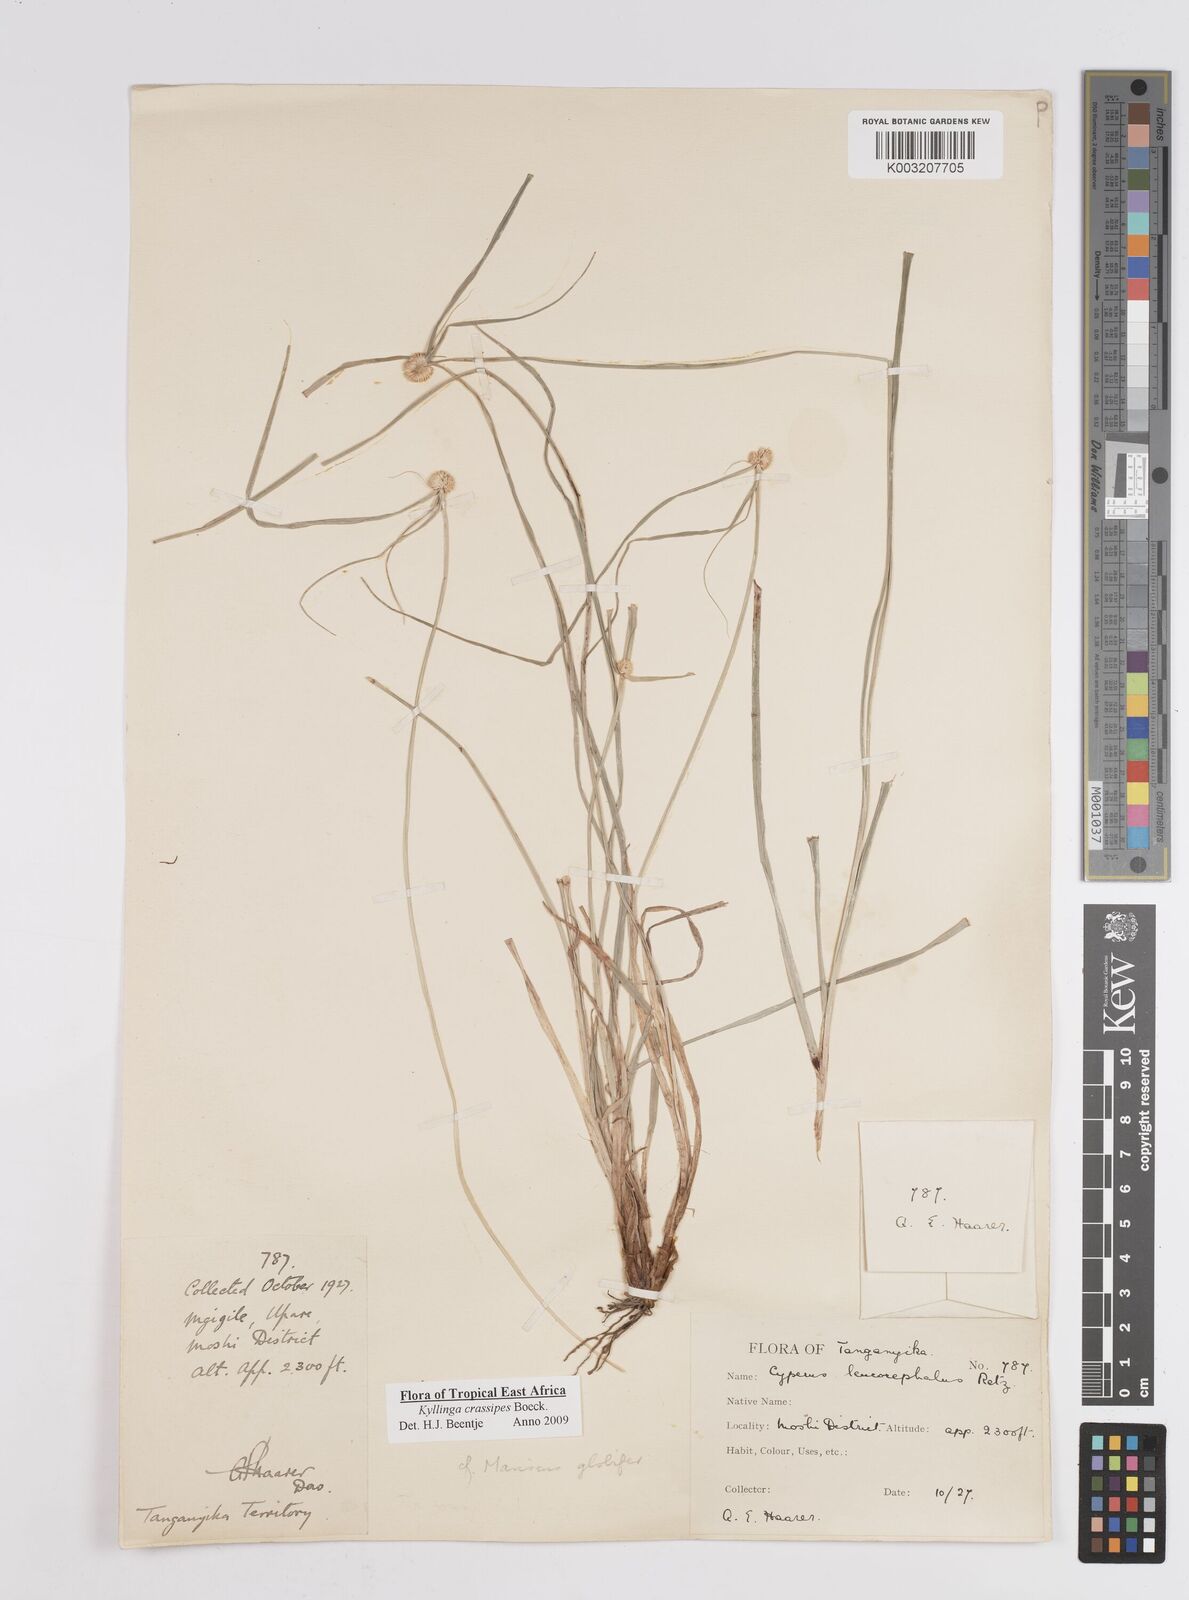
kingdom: Plantae
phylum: Tracheophyta
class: Liliopsida
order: Poales
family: Cyperaceae
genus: Cyperus
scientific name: Cyperus crassipes
